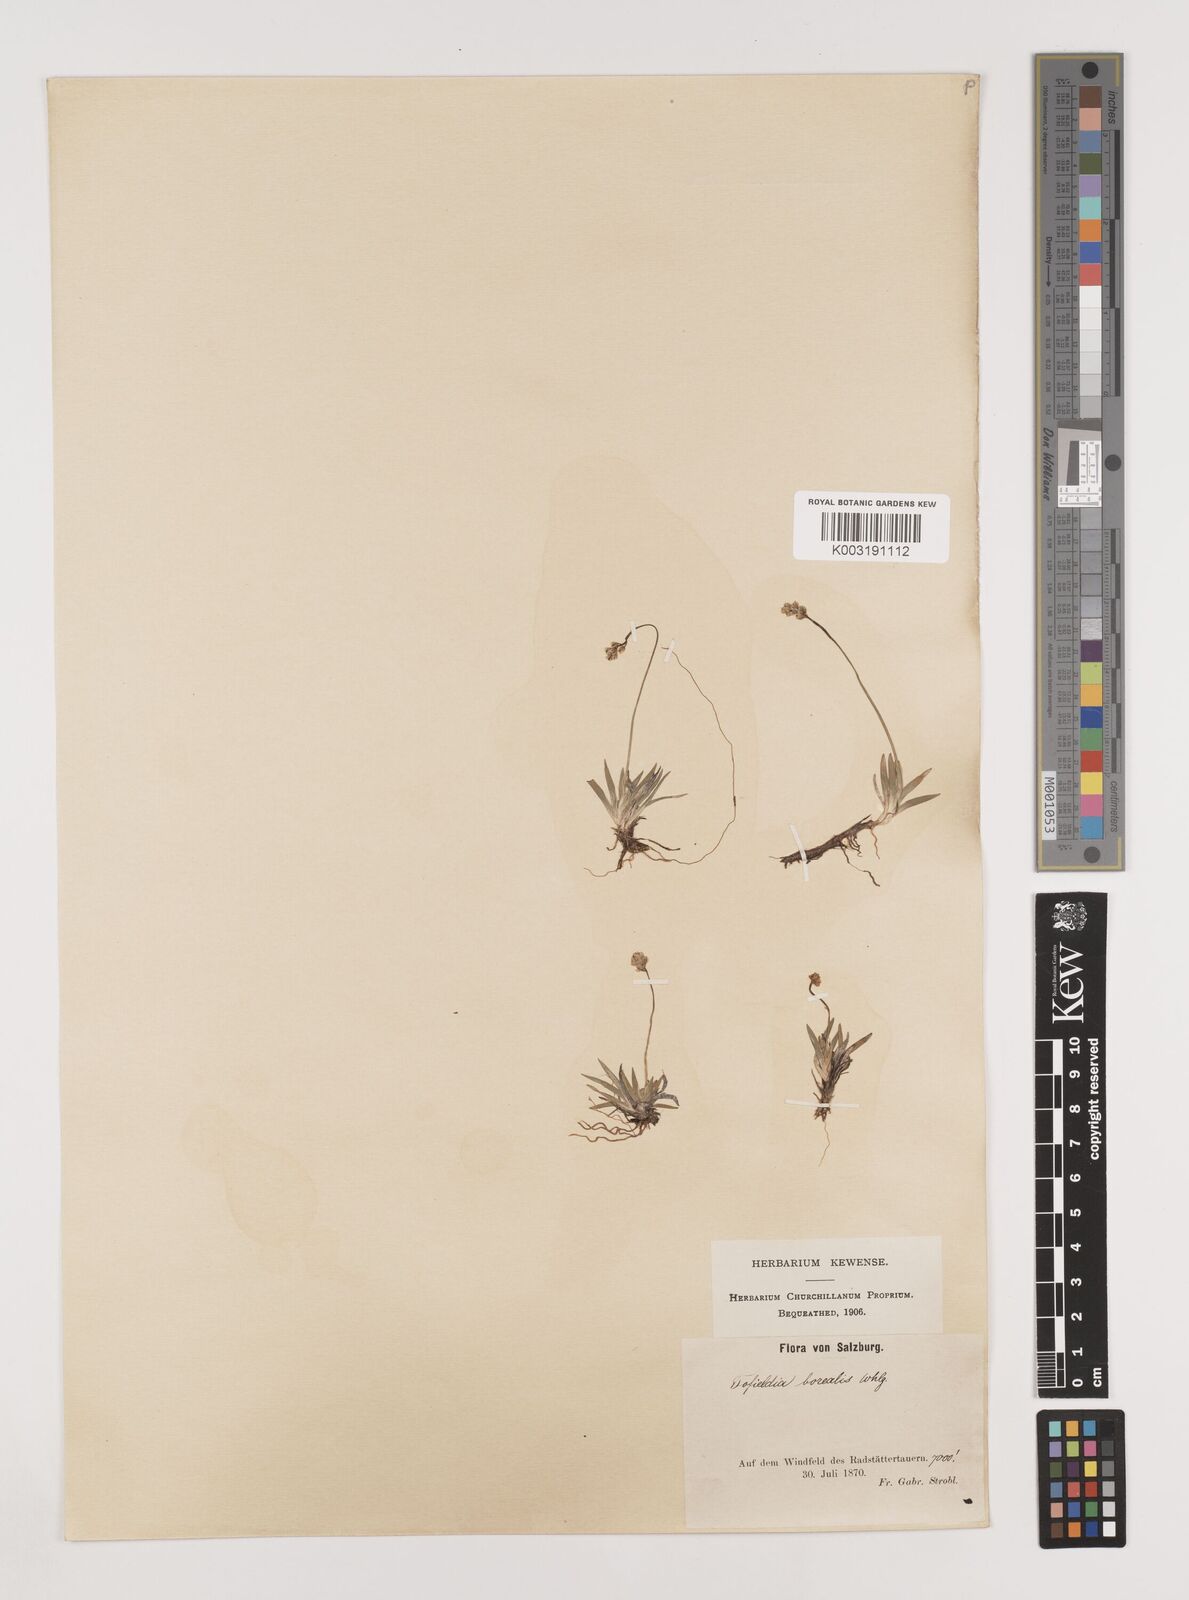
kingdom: Plantae
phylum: Tracheophyta
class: Liliopsida
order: Alismatales
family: Tofieldiaceae
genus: Tofieldia
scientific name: Tofieldia pusilla
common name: Scottish false asphodel
